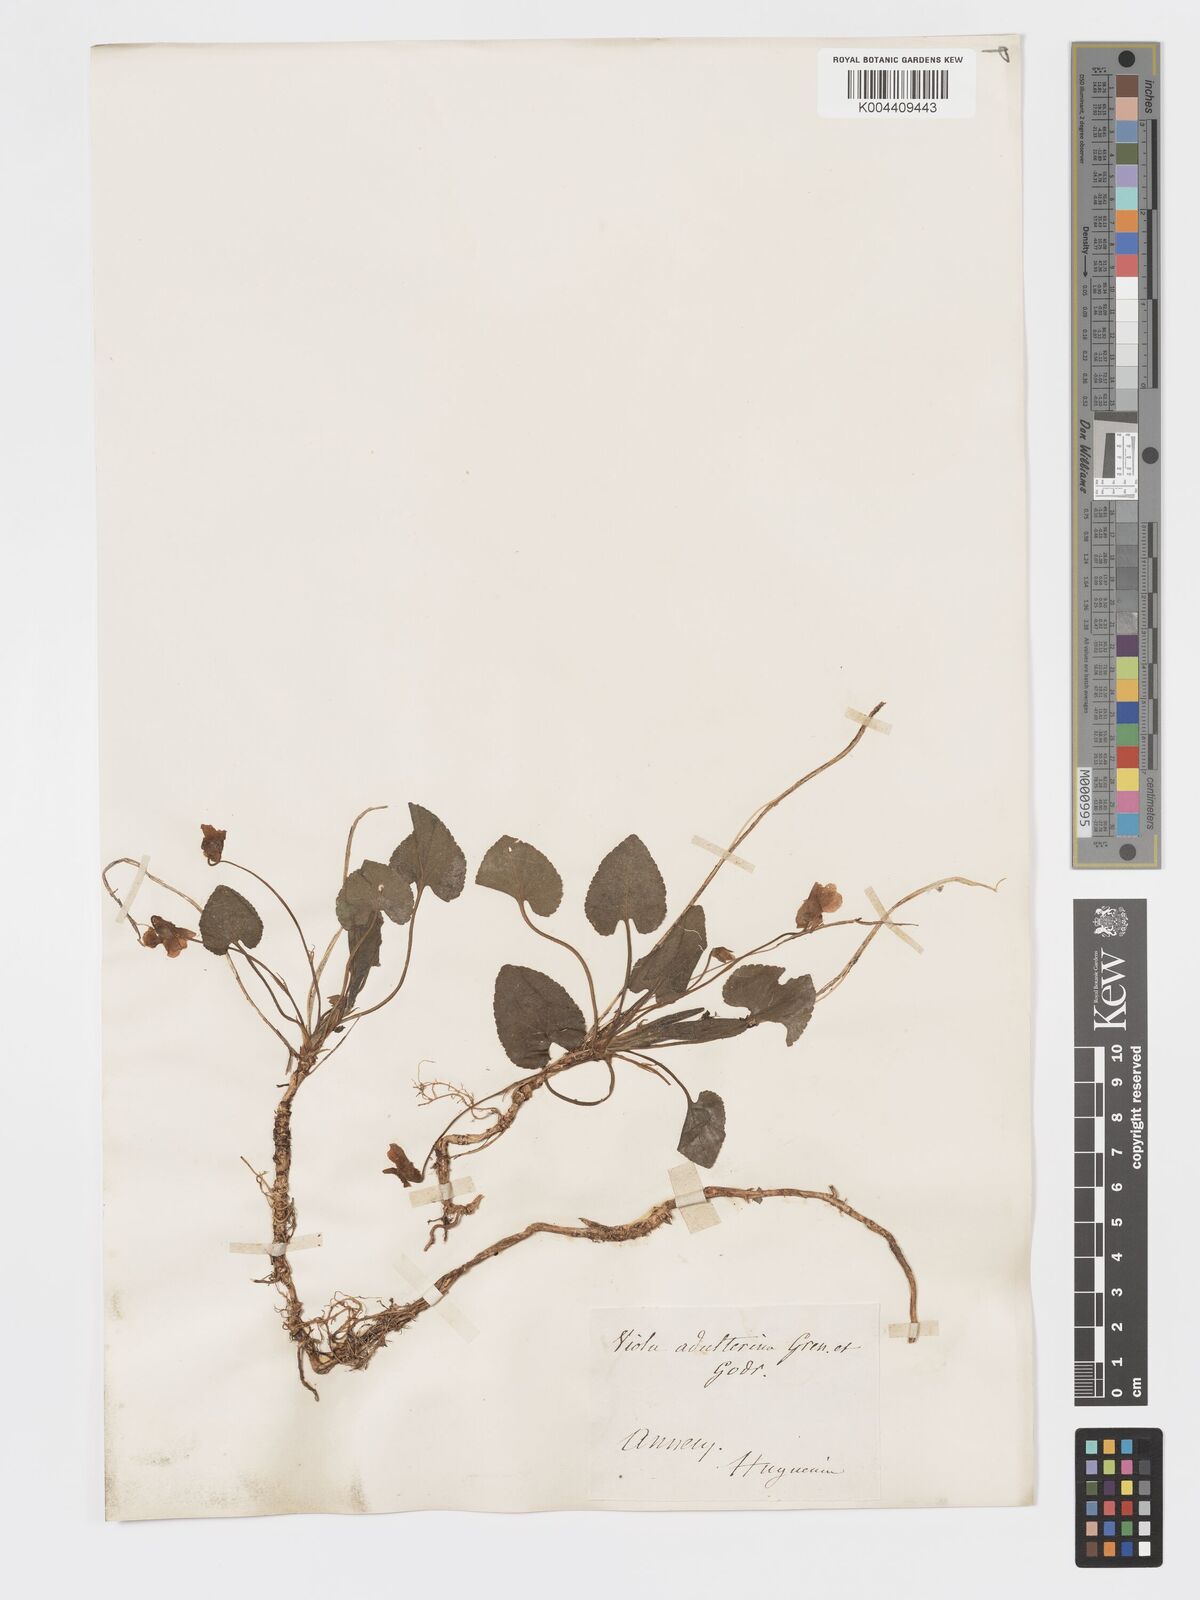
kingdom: Plantae
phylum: Tracheophyta
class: Magnoliopsida
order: Malpighiales
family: Violaceae
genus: Viola
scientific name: Viola alba
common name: White violet
